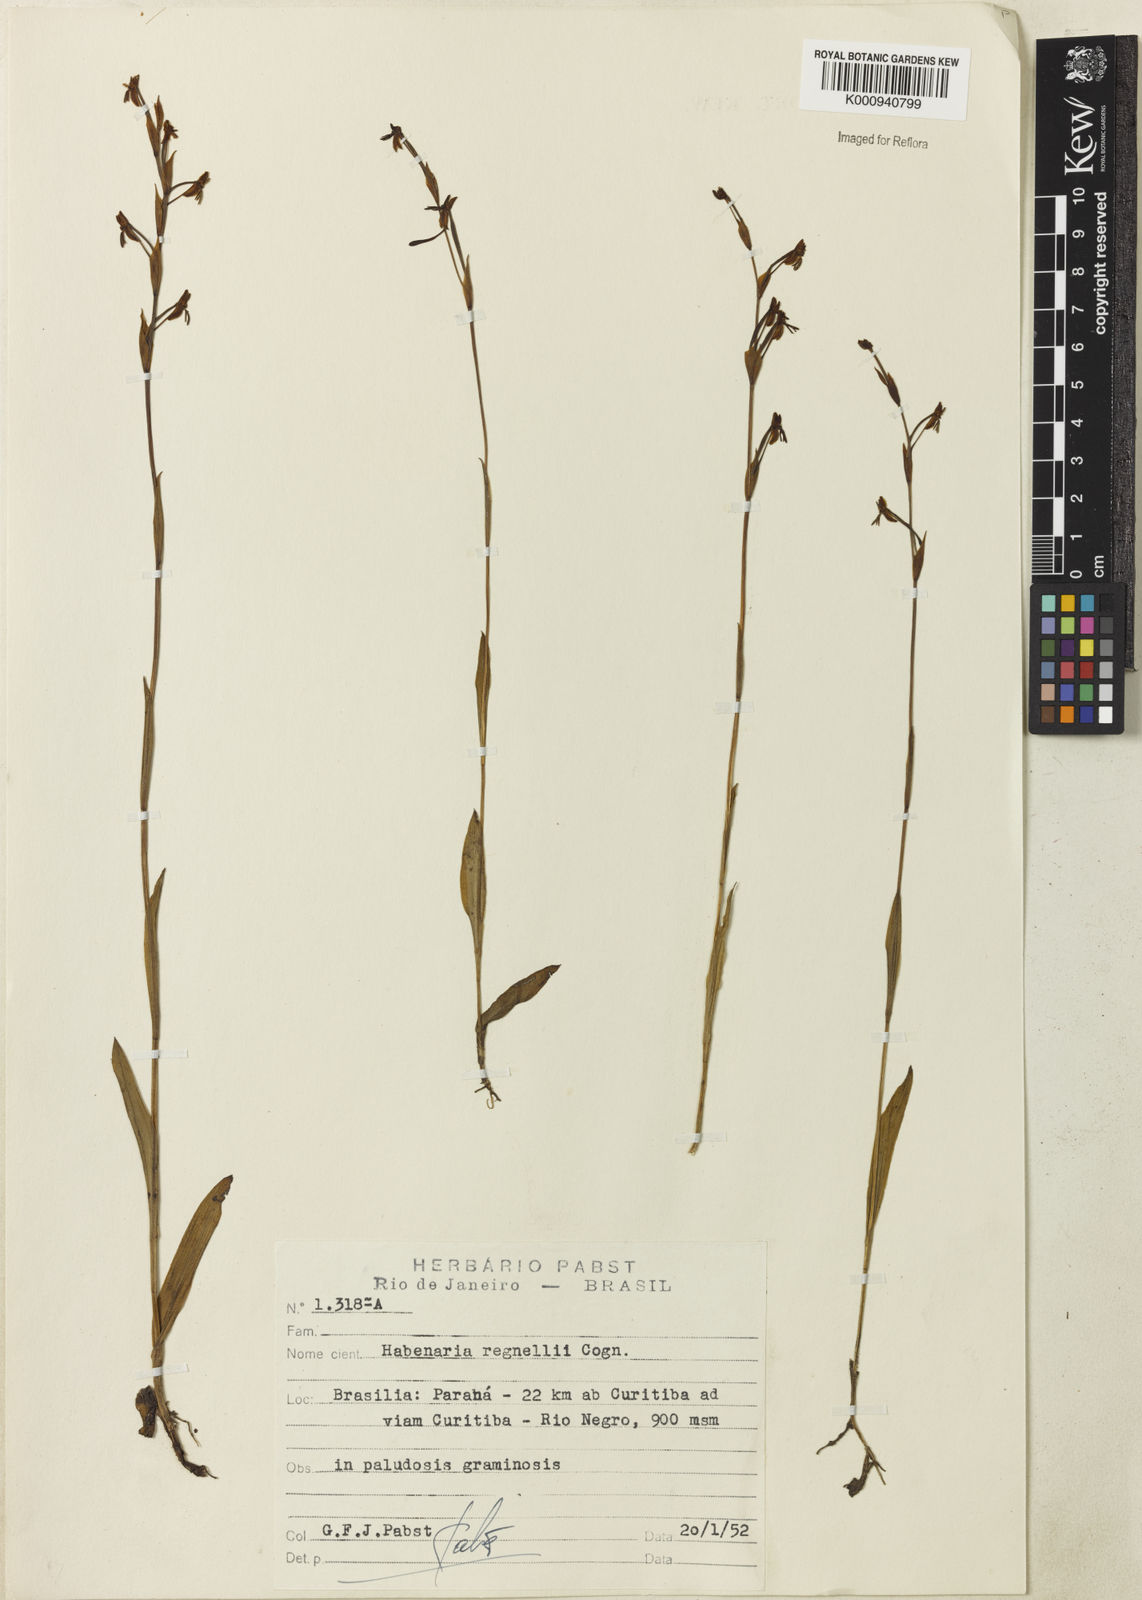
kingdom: Plantae
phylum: Tracheophyta
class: Liliopsida
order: Asparagales
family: Orchidaceae
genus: Habenaria
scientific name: Habenaria regnellii
